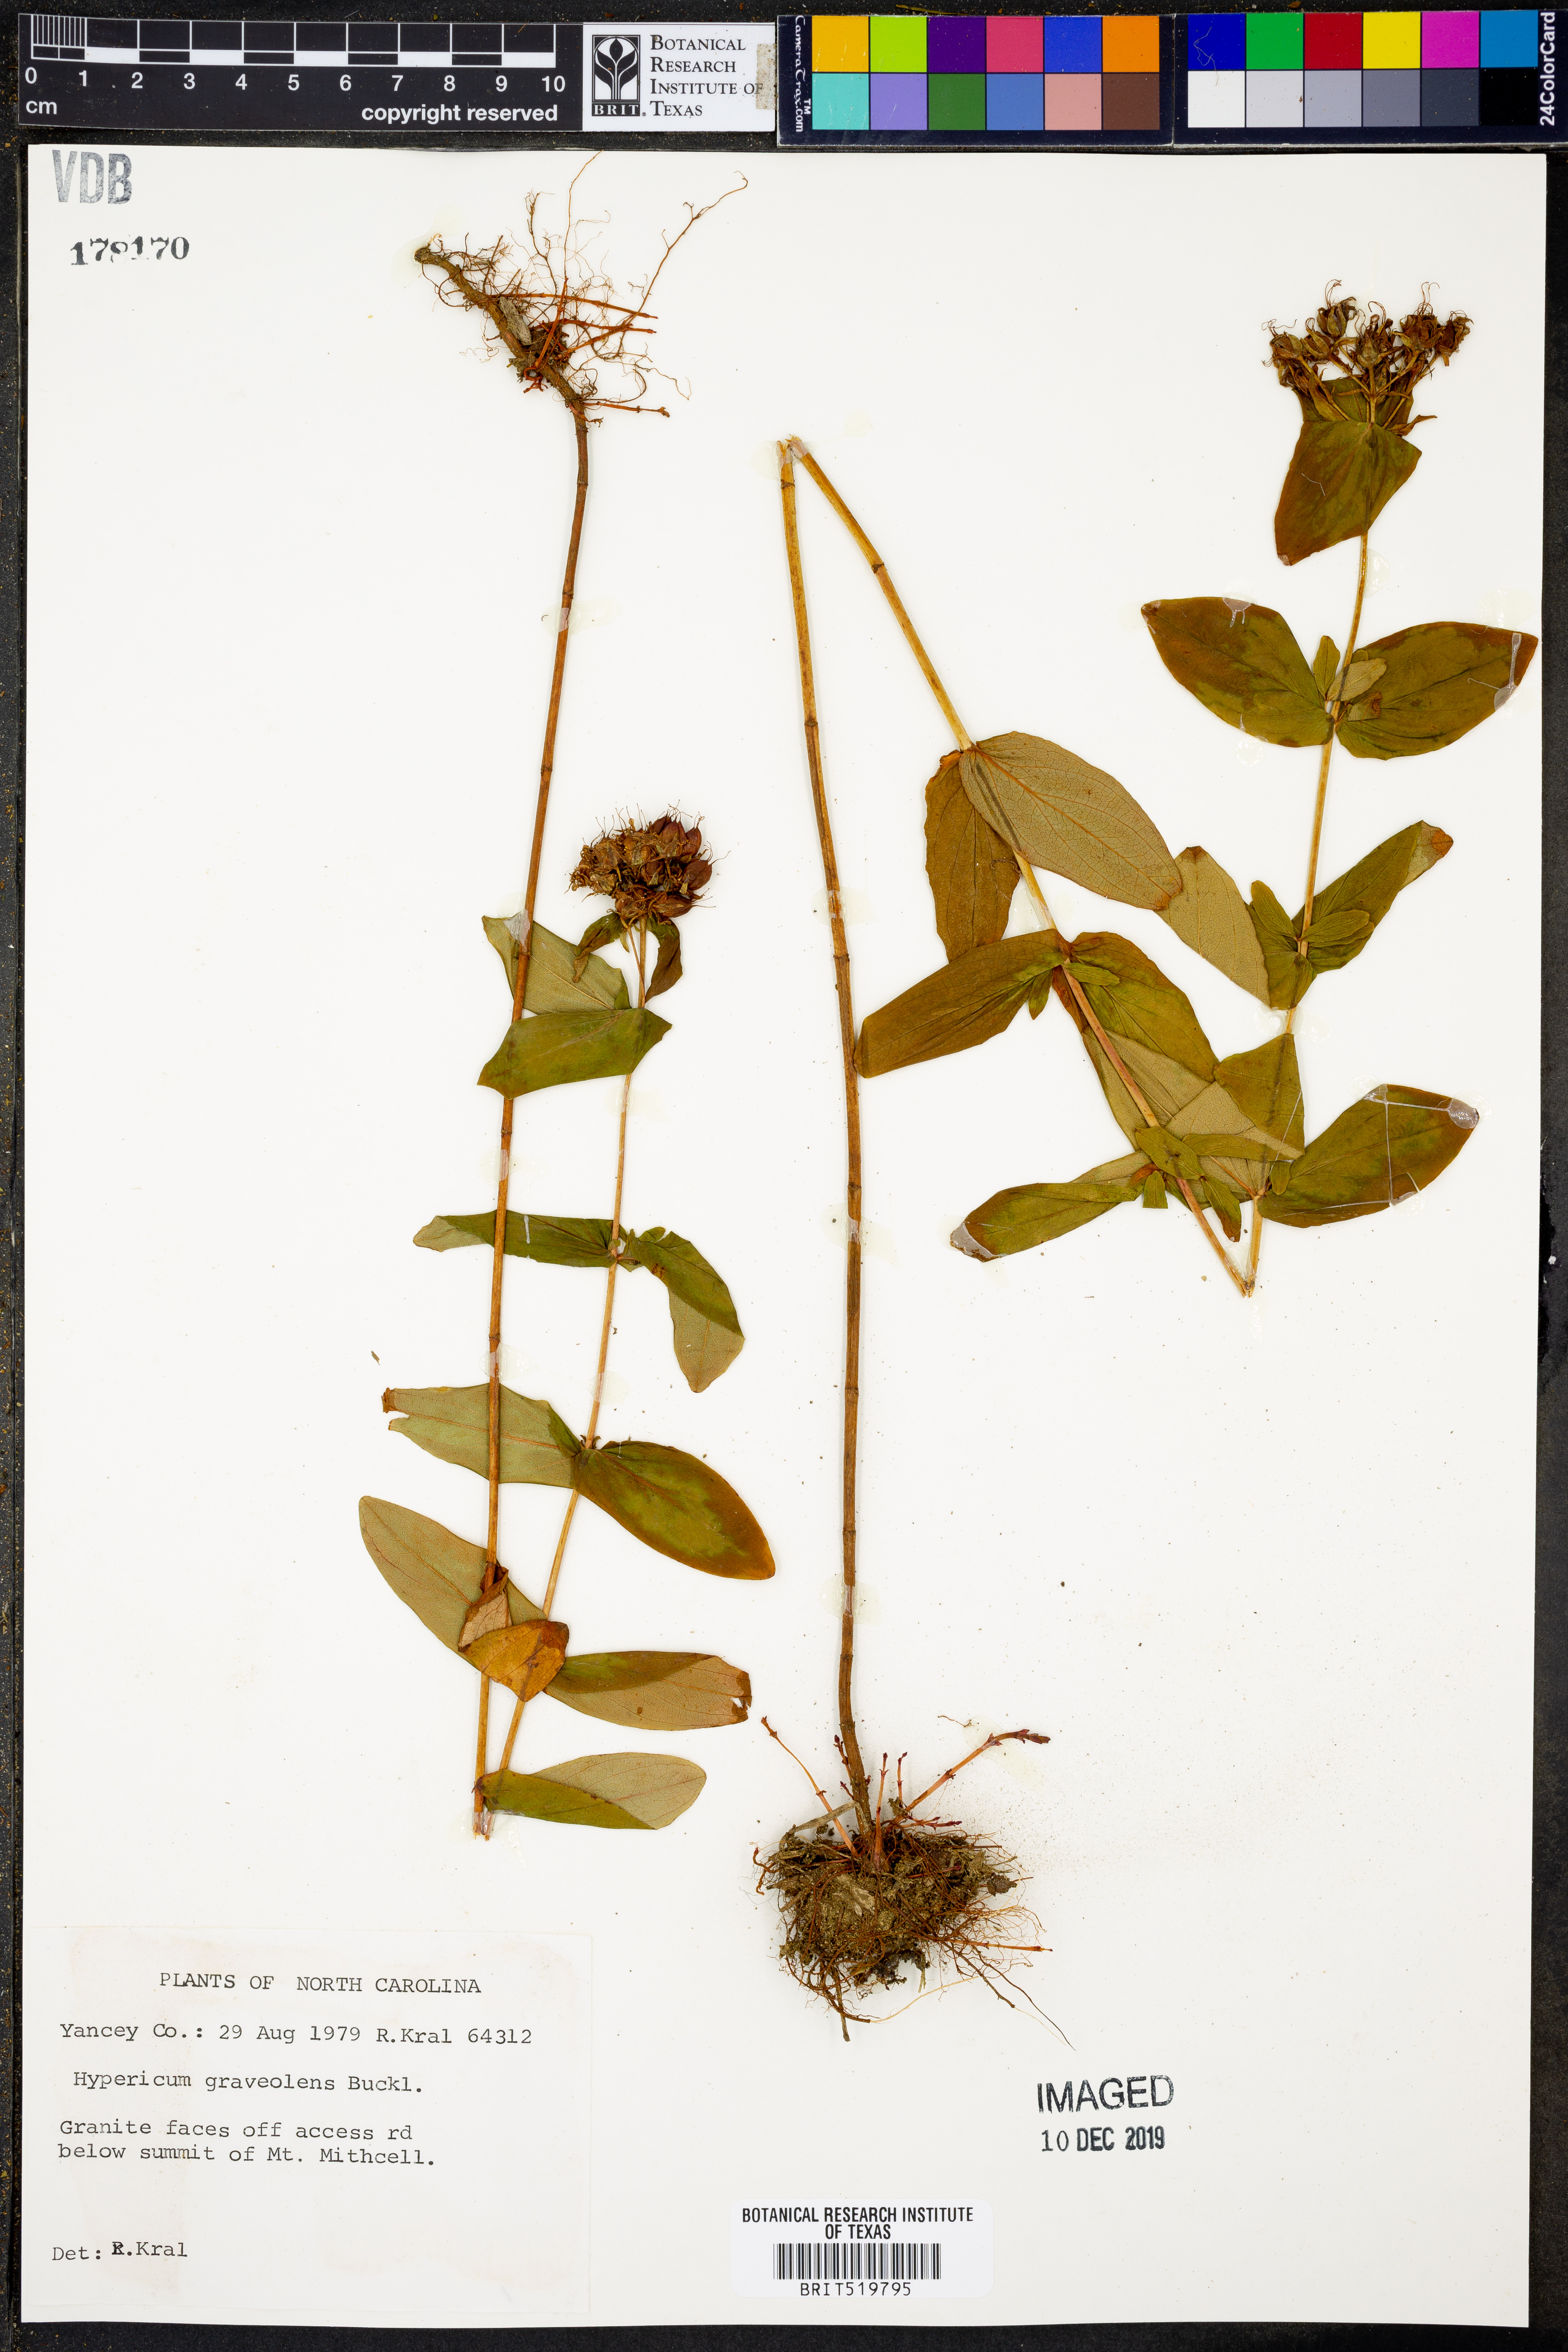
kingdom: Plantae
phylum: Tracheophyta
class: Magnoliopsida
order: Malpighiales
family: Hypericaceae
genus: Hypericum
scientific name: Hypericum graveolens
